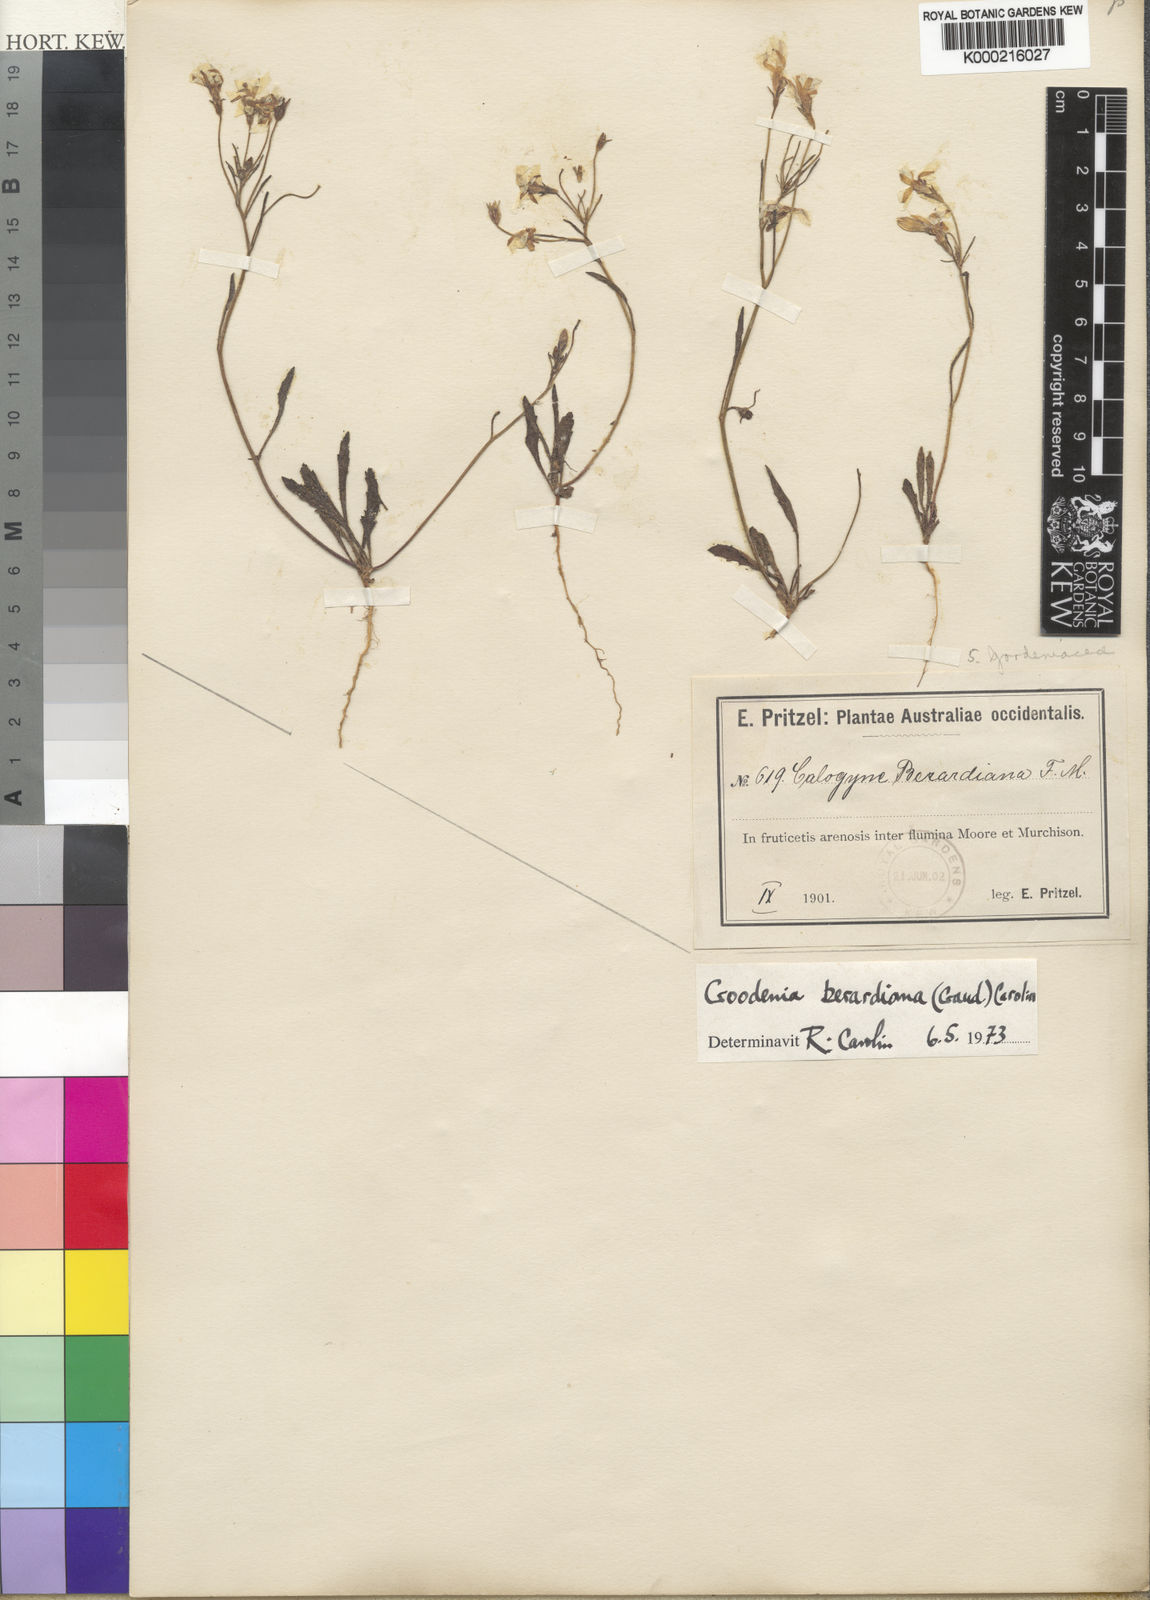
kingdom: Plantae
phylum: Tracheophyta
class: Magnoliopsida
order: Asterales
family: Goodeniaceae
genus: Goodenia
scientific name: Goodenia berardiana
